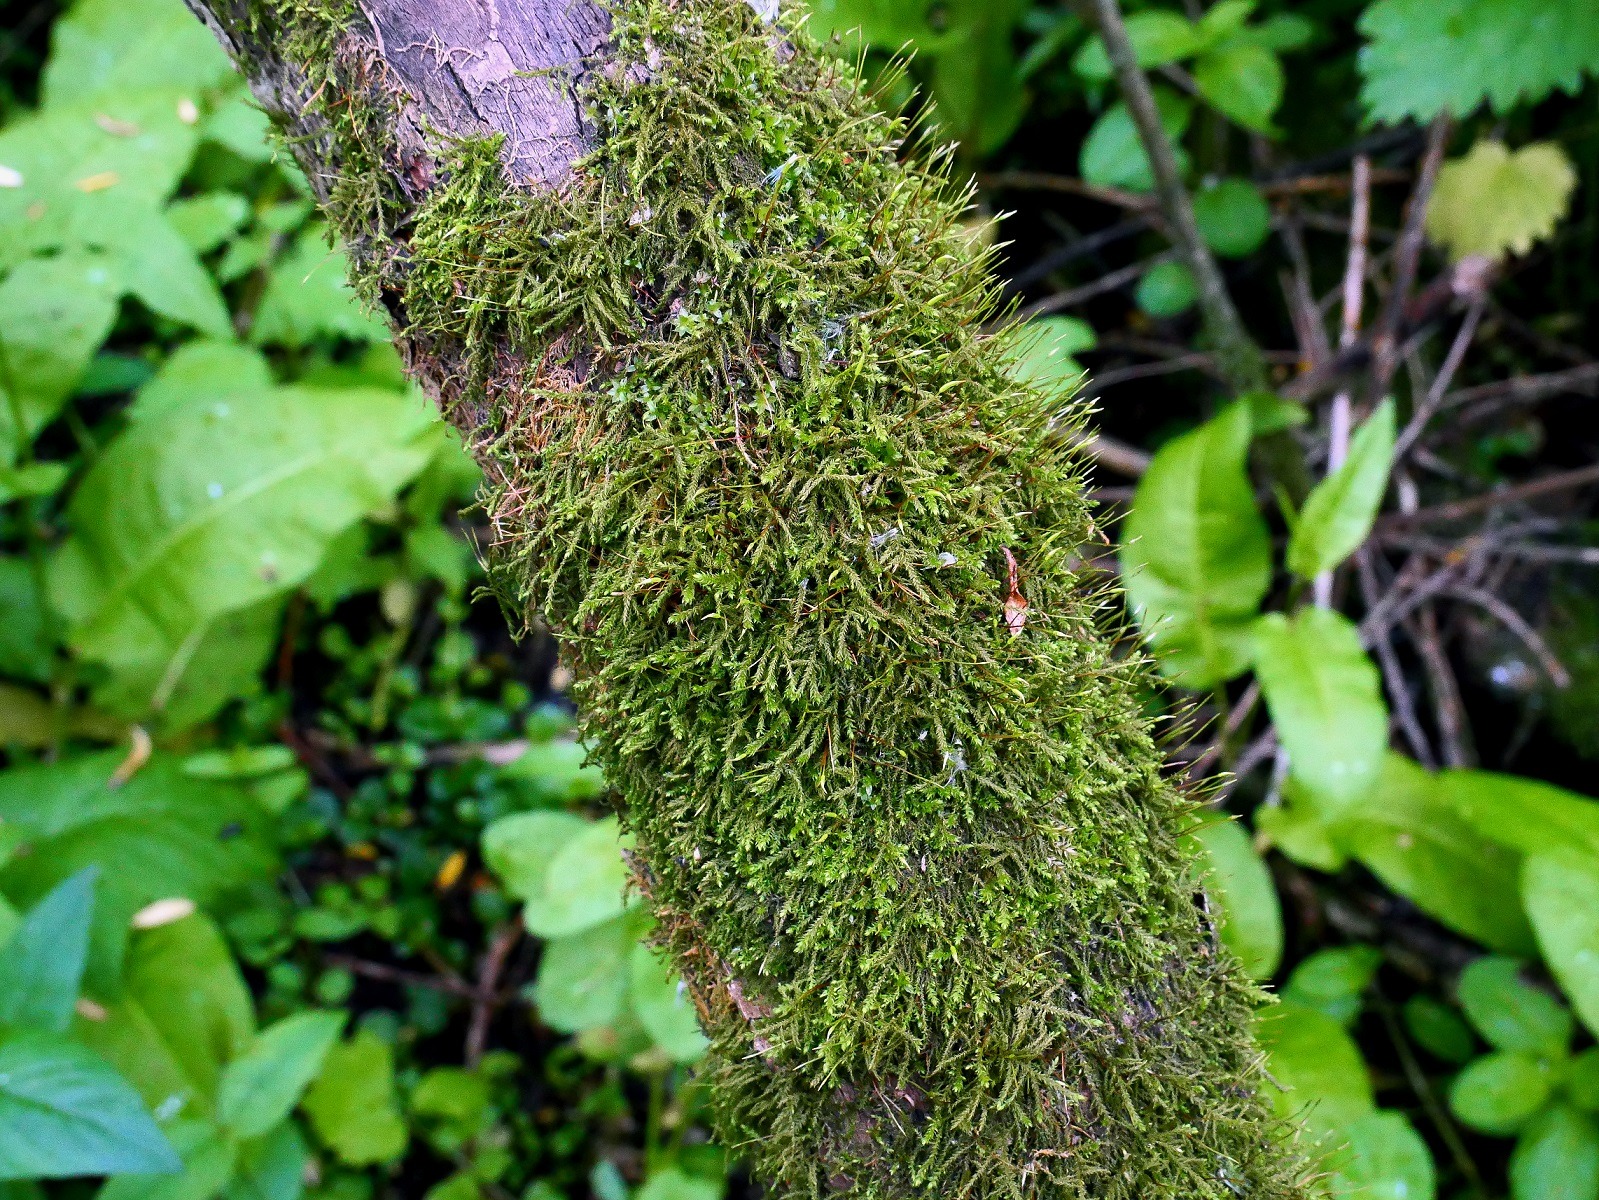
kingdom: Plantae
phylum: Bryophyta
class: Bryopsida
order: Hypnales
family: Leskeaceae
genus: Leskea
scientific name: Leskea polycarpa
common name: Mat lærkemos
